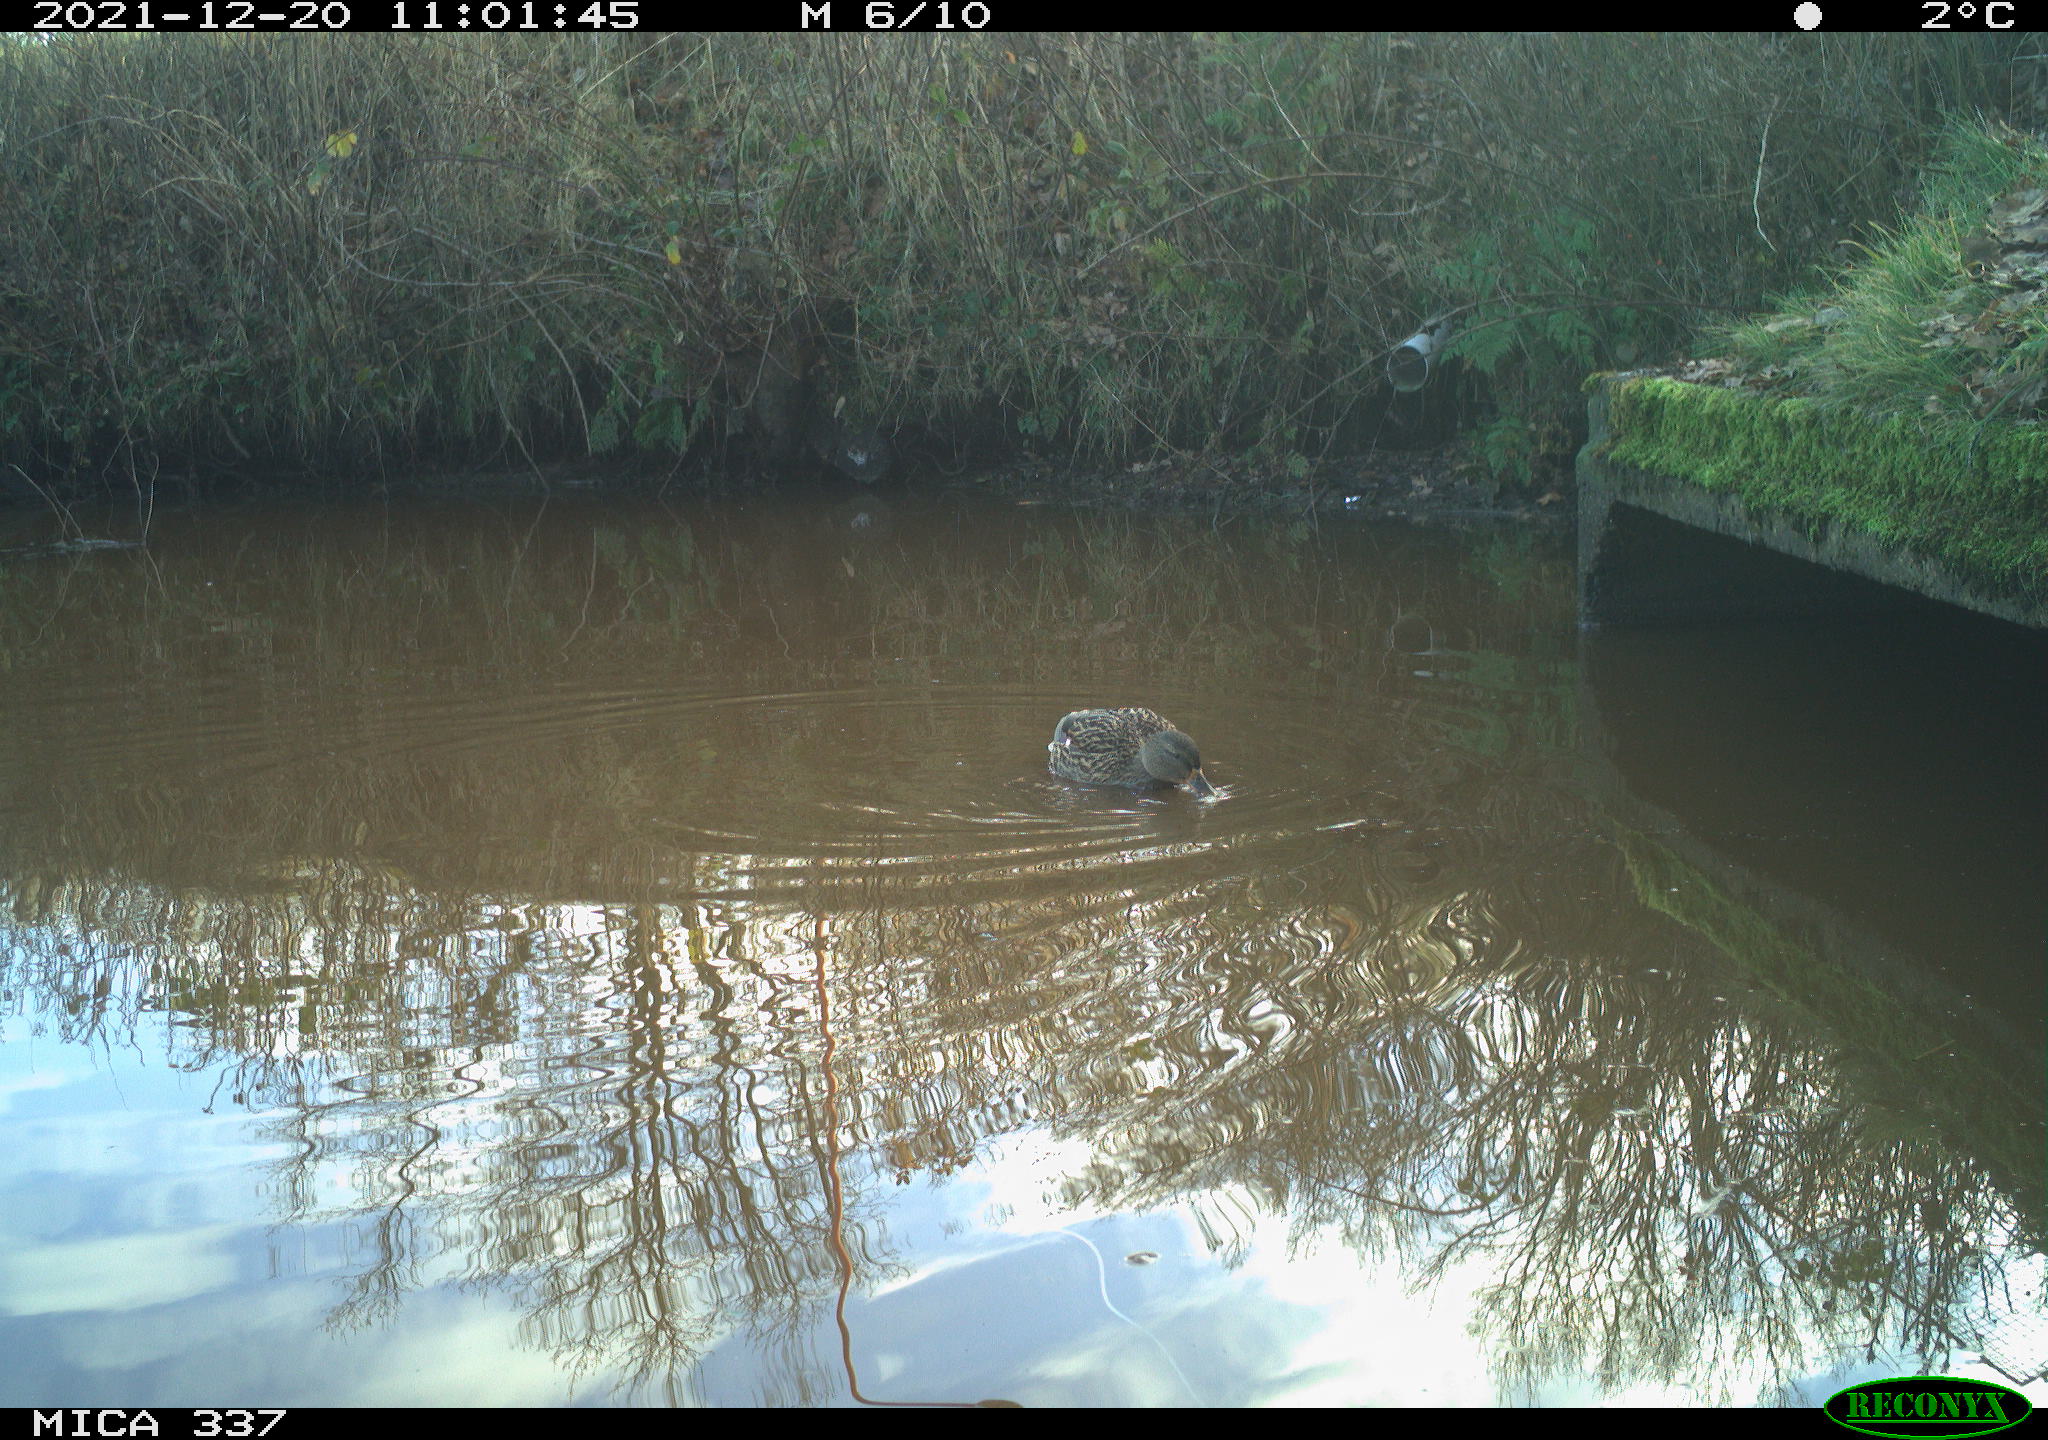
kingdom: Animalia
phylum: Chordata
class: Aves
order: Anseriformes
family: Anatidae
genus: Anas
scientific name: Anas platyrhynchos
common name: Mallard
